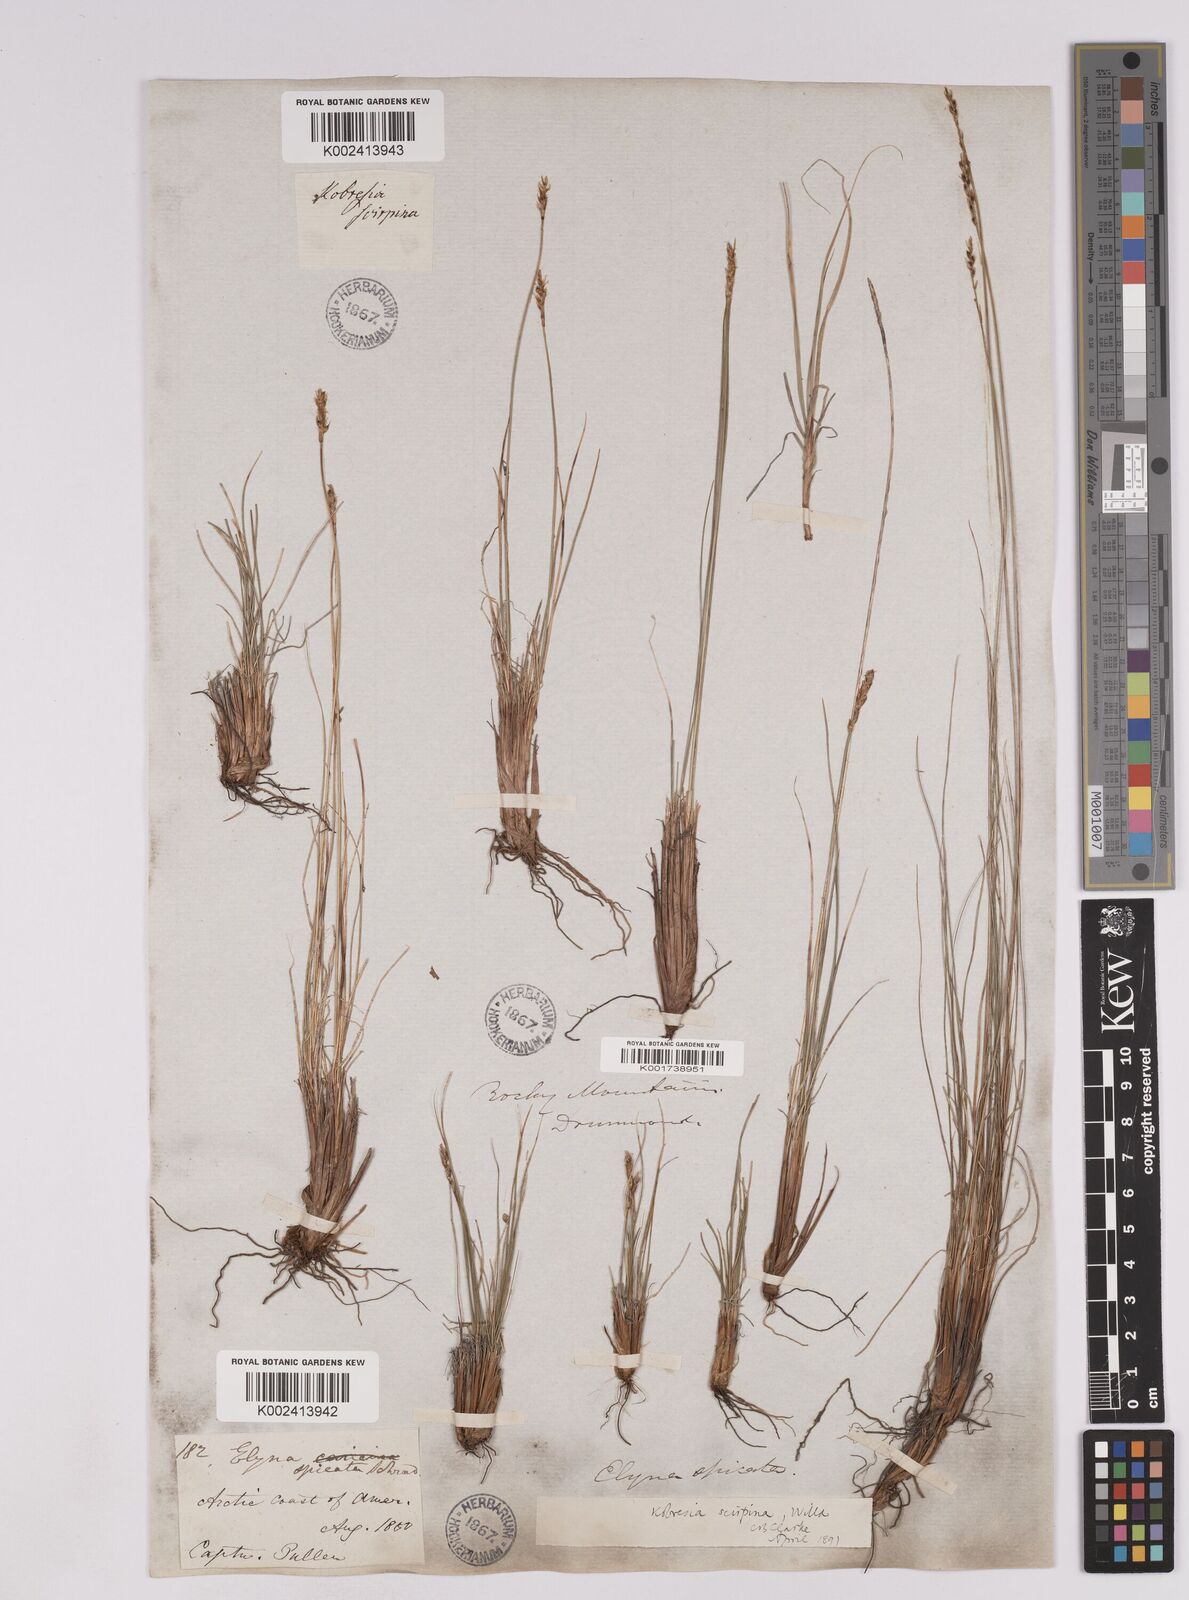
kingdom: Plantae
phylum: Tracheophyta
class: Liliopsida
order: Poales
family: Cyperaceae
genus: Carex
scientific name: Carex myosuroides
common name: Bellard's bog sedge
